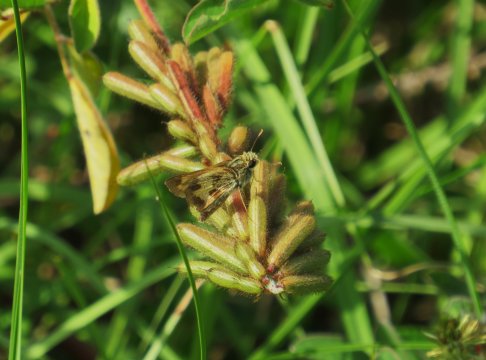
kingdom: Animalia
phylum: Arthropoda
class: Insecta
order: Lepidoptera
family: Hesperiidae
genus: Polites
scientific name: Polites vibex
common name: Whirlabout
